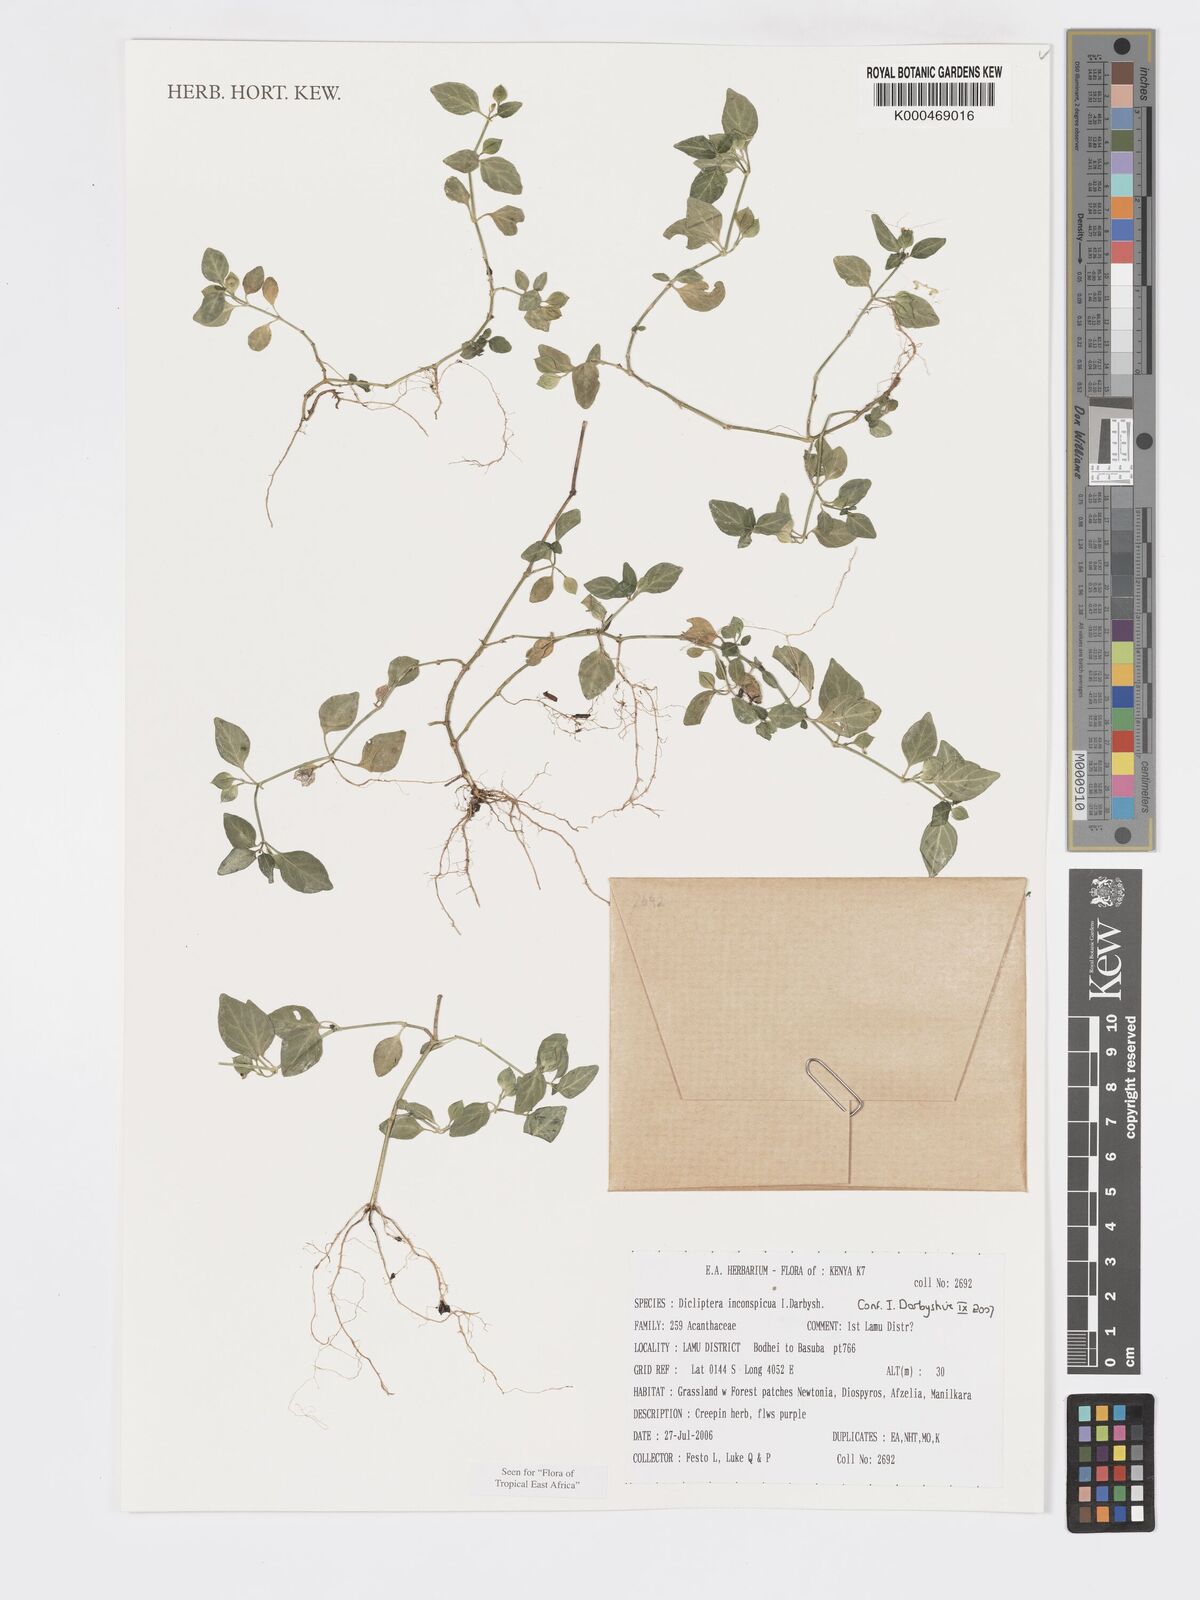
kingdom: Plantae
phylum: Tracheophyta
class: Magnoliopsida
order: Lamiales
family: Acanthaceae
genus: Dicliptera
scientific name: Dicliptera inconspicua
